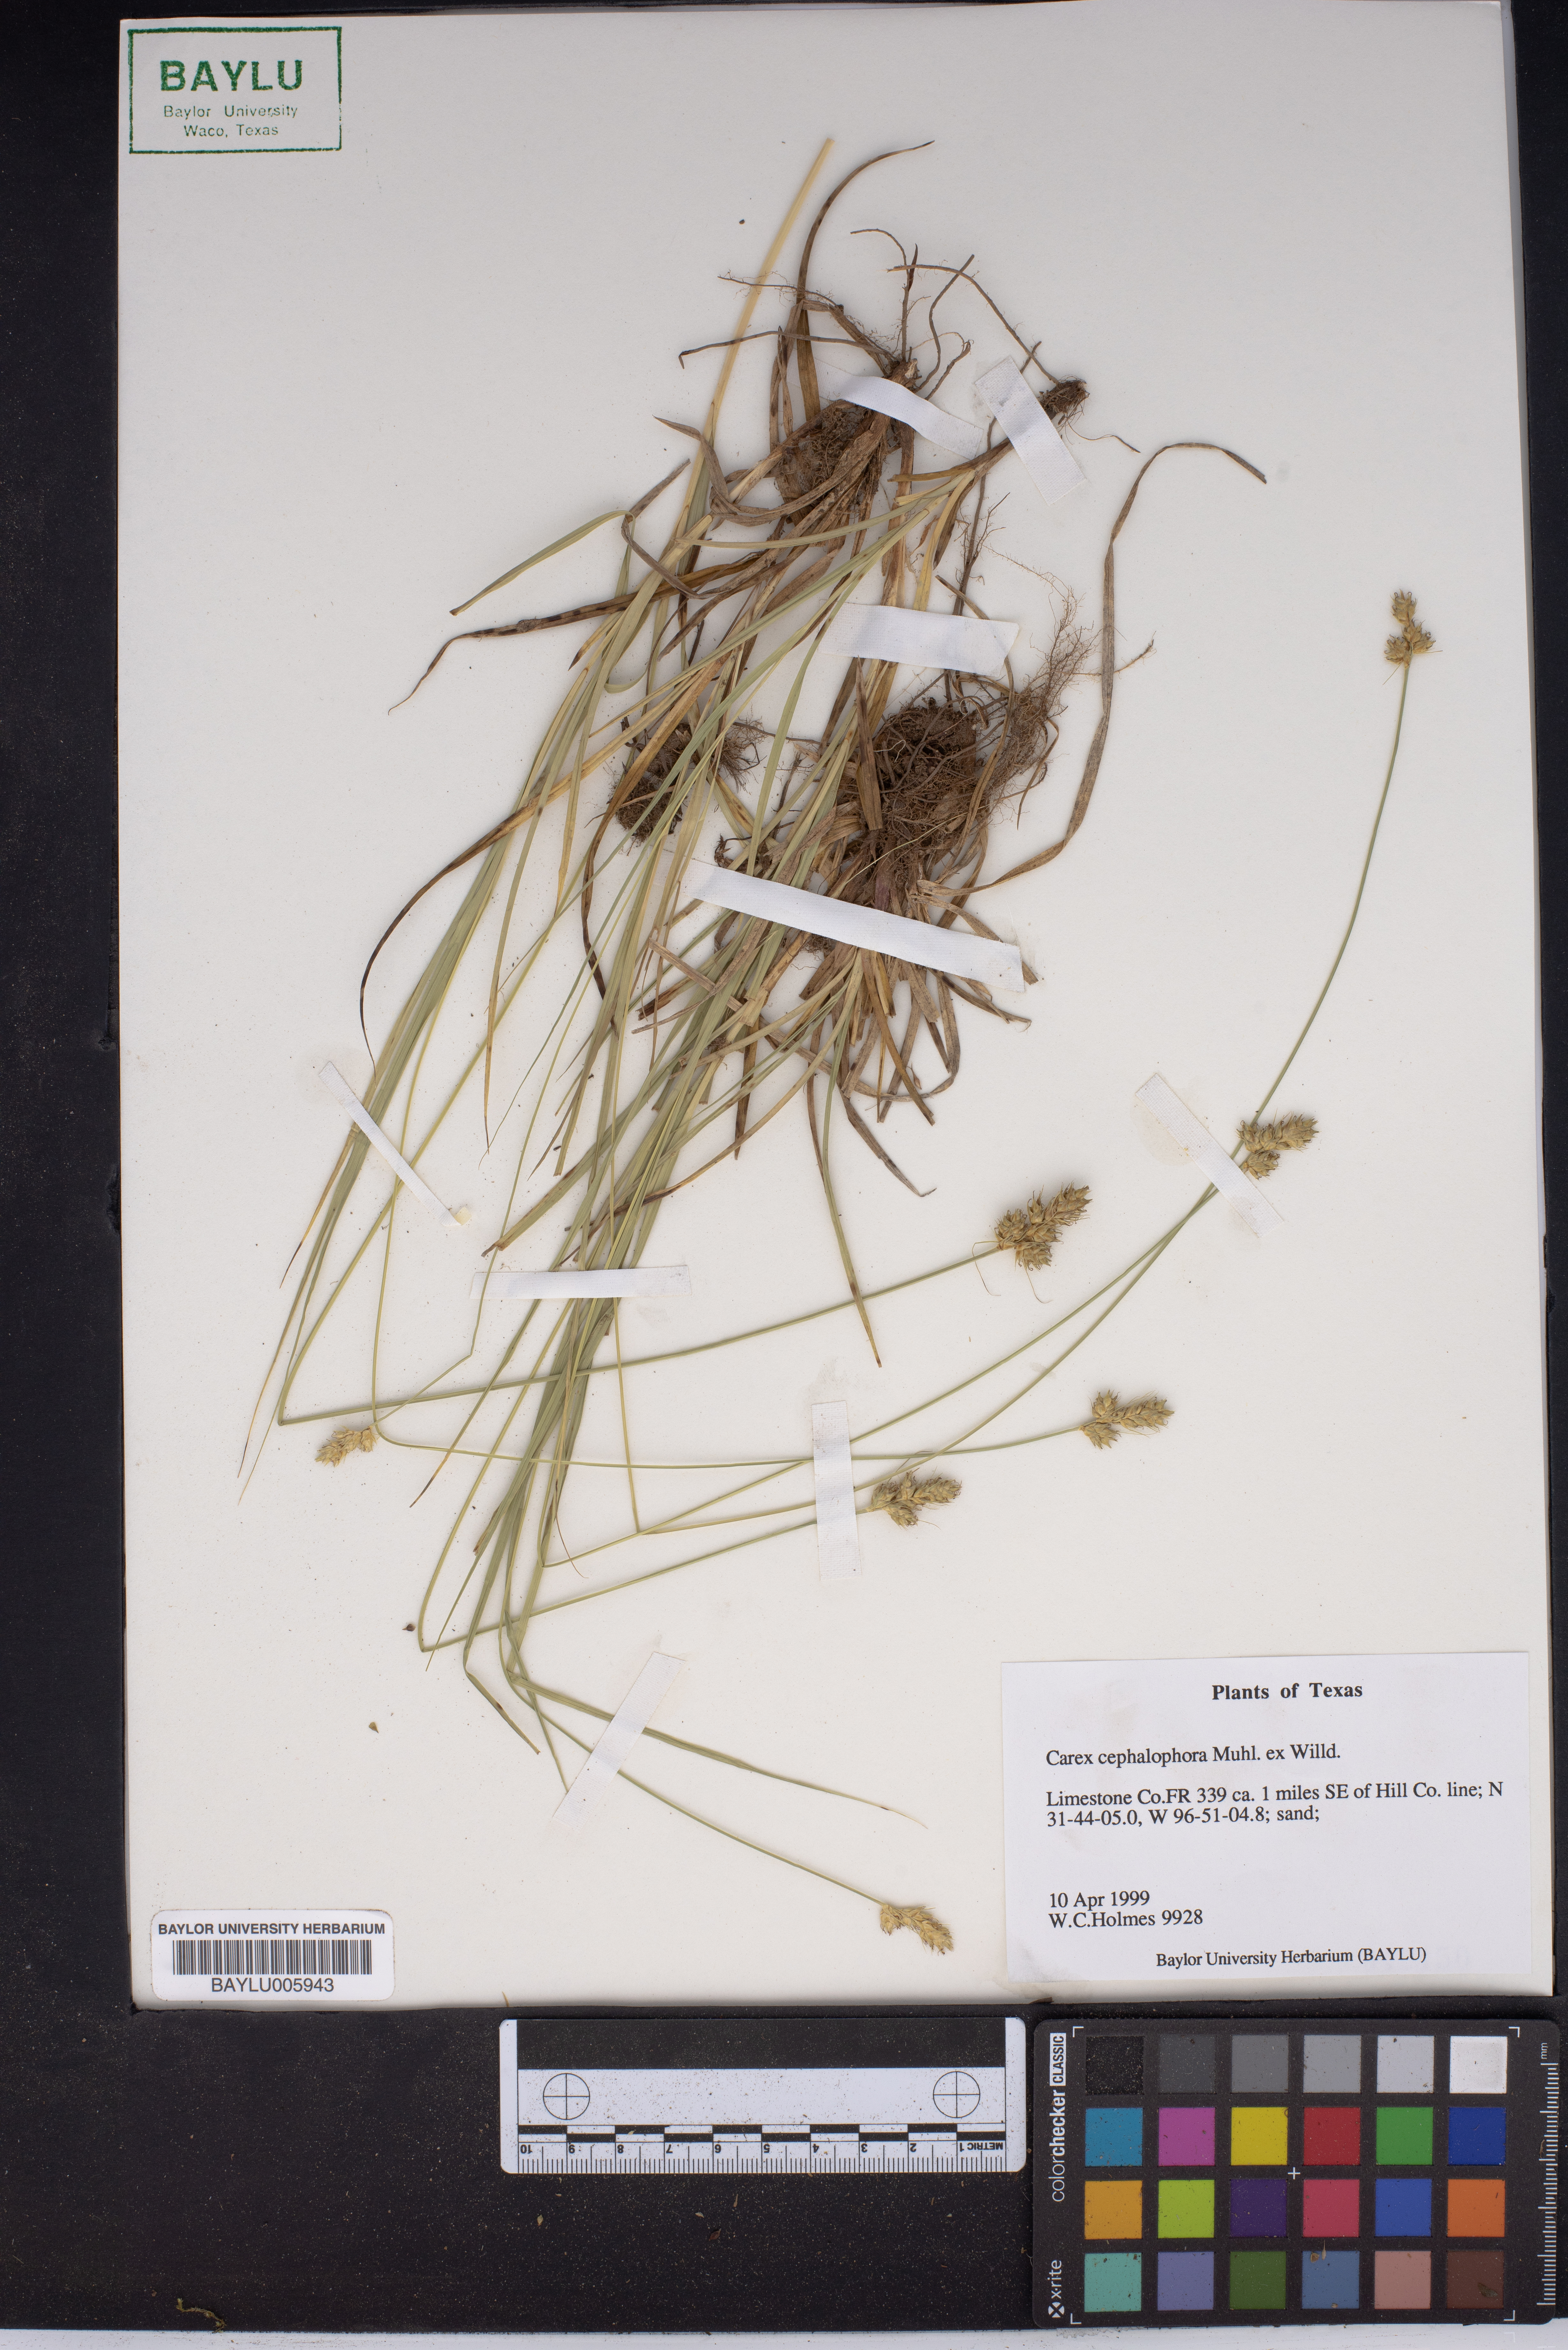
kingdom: Plantae
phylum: Tracheophyta
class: Liliopsida
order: Poales
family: Cyperaceae
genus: Carex
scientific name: Carex cephalophora
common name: Oval-headed sedge
